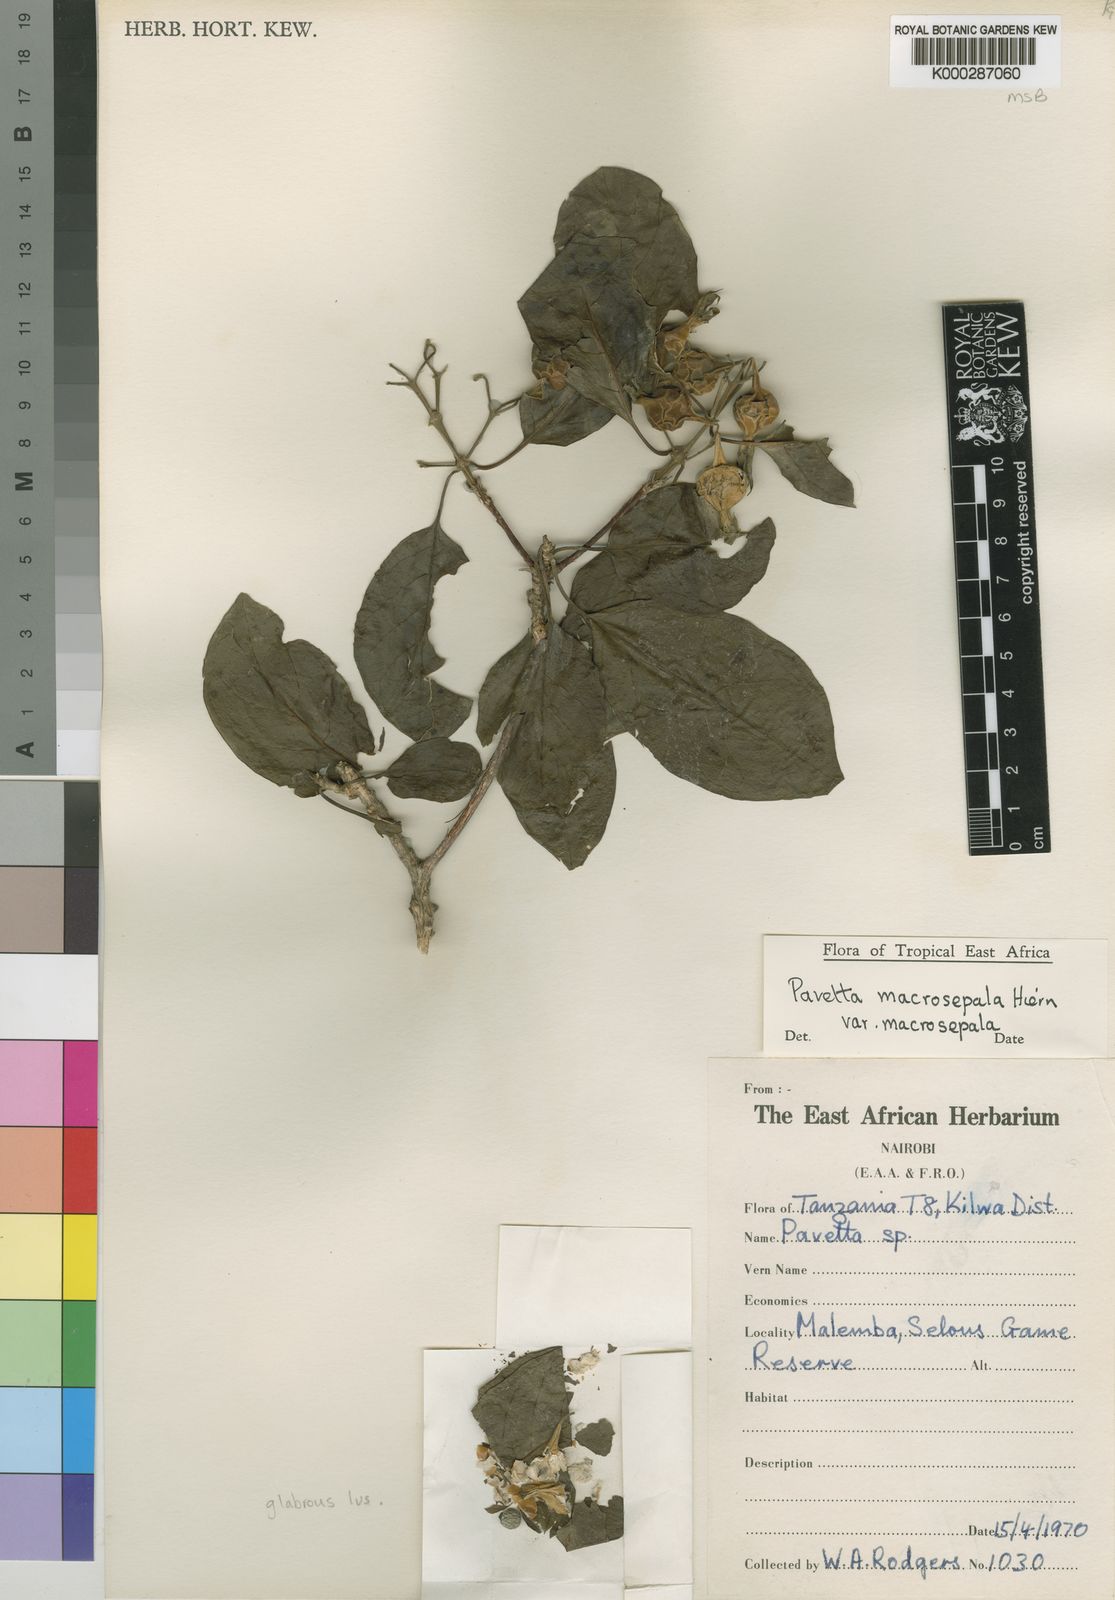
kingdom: Plantae
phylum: Tracheophyta
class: Magnoliopsida
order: Gentianales
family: Rubiaceae
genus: Pavetta
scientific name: Pavetta macrosepala
